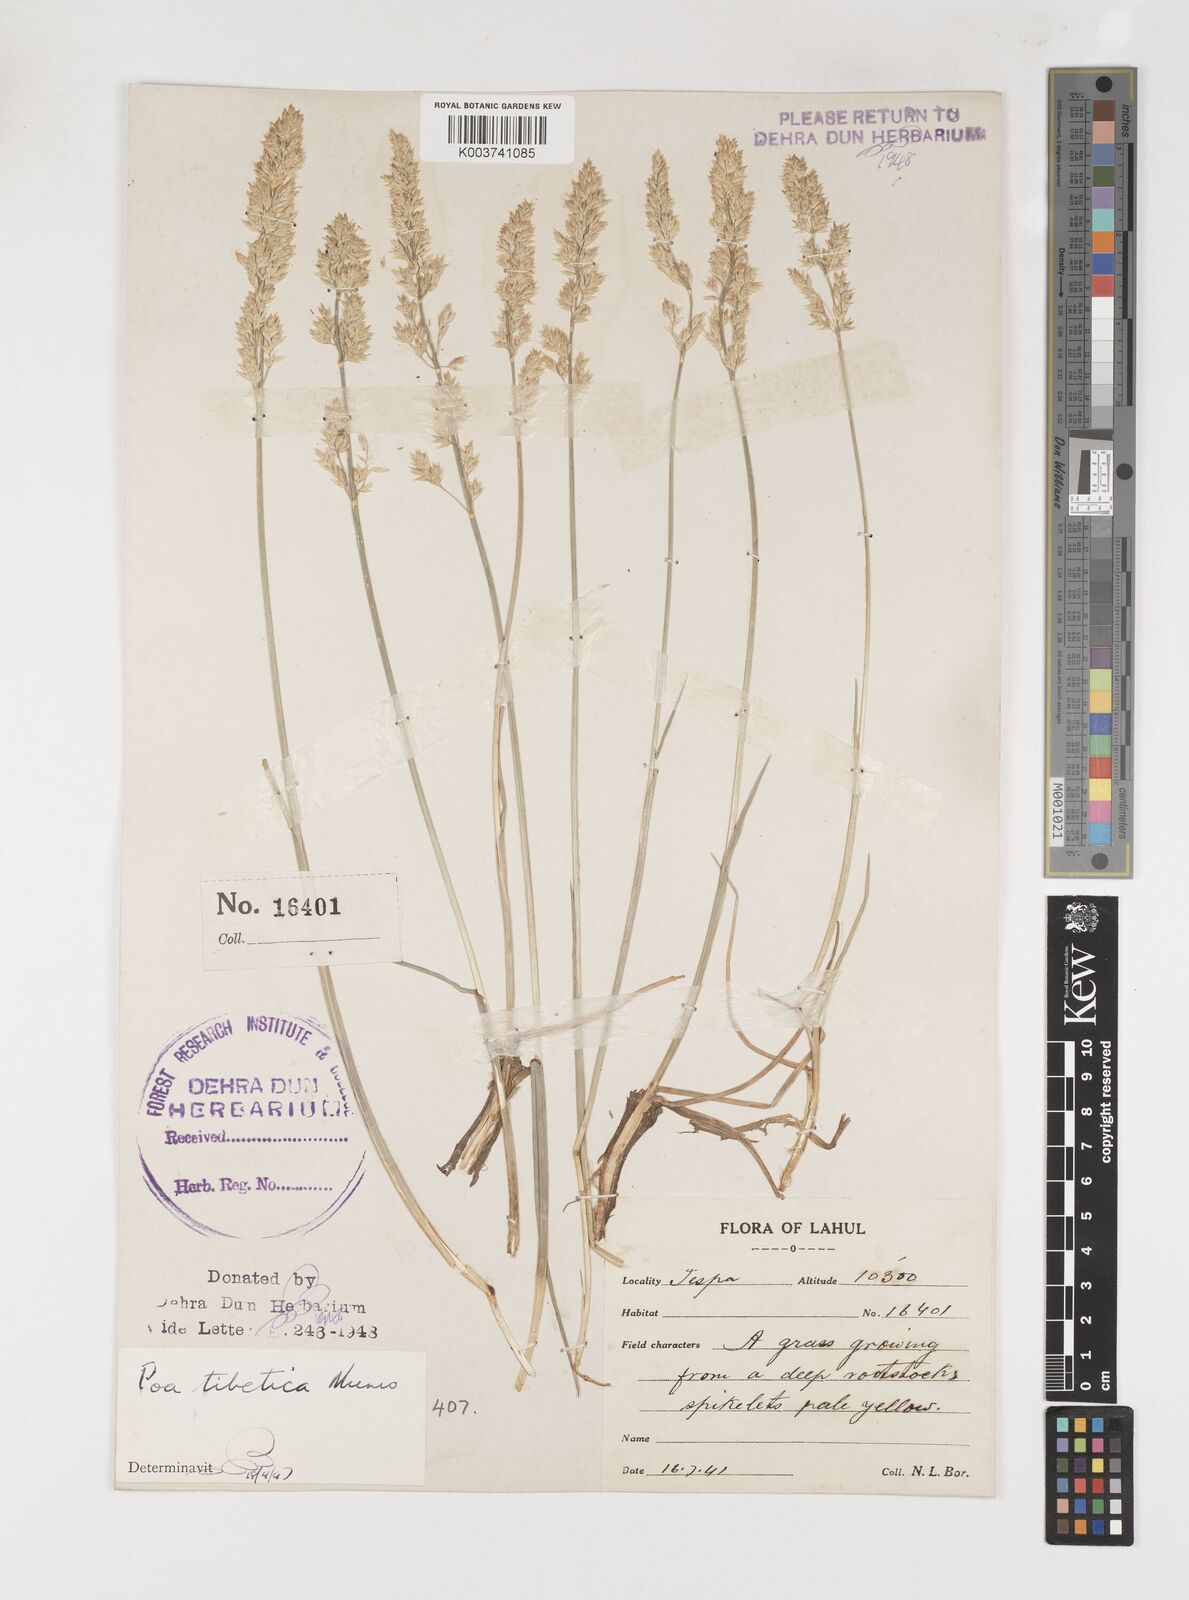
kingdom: Plantae
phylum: Tracheophyta
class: Liliopsida
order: Poales
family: Poaceae
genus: Arctopoa
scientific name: Arctopoa tibetica
